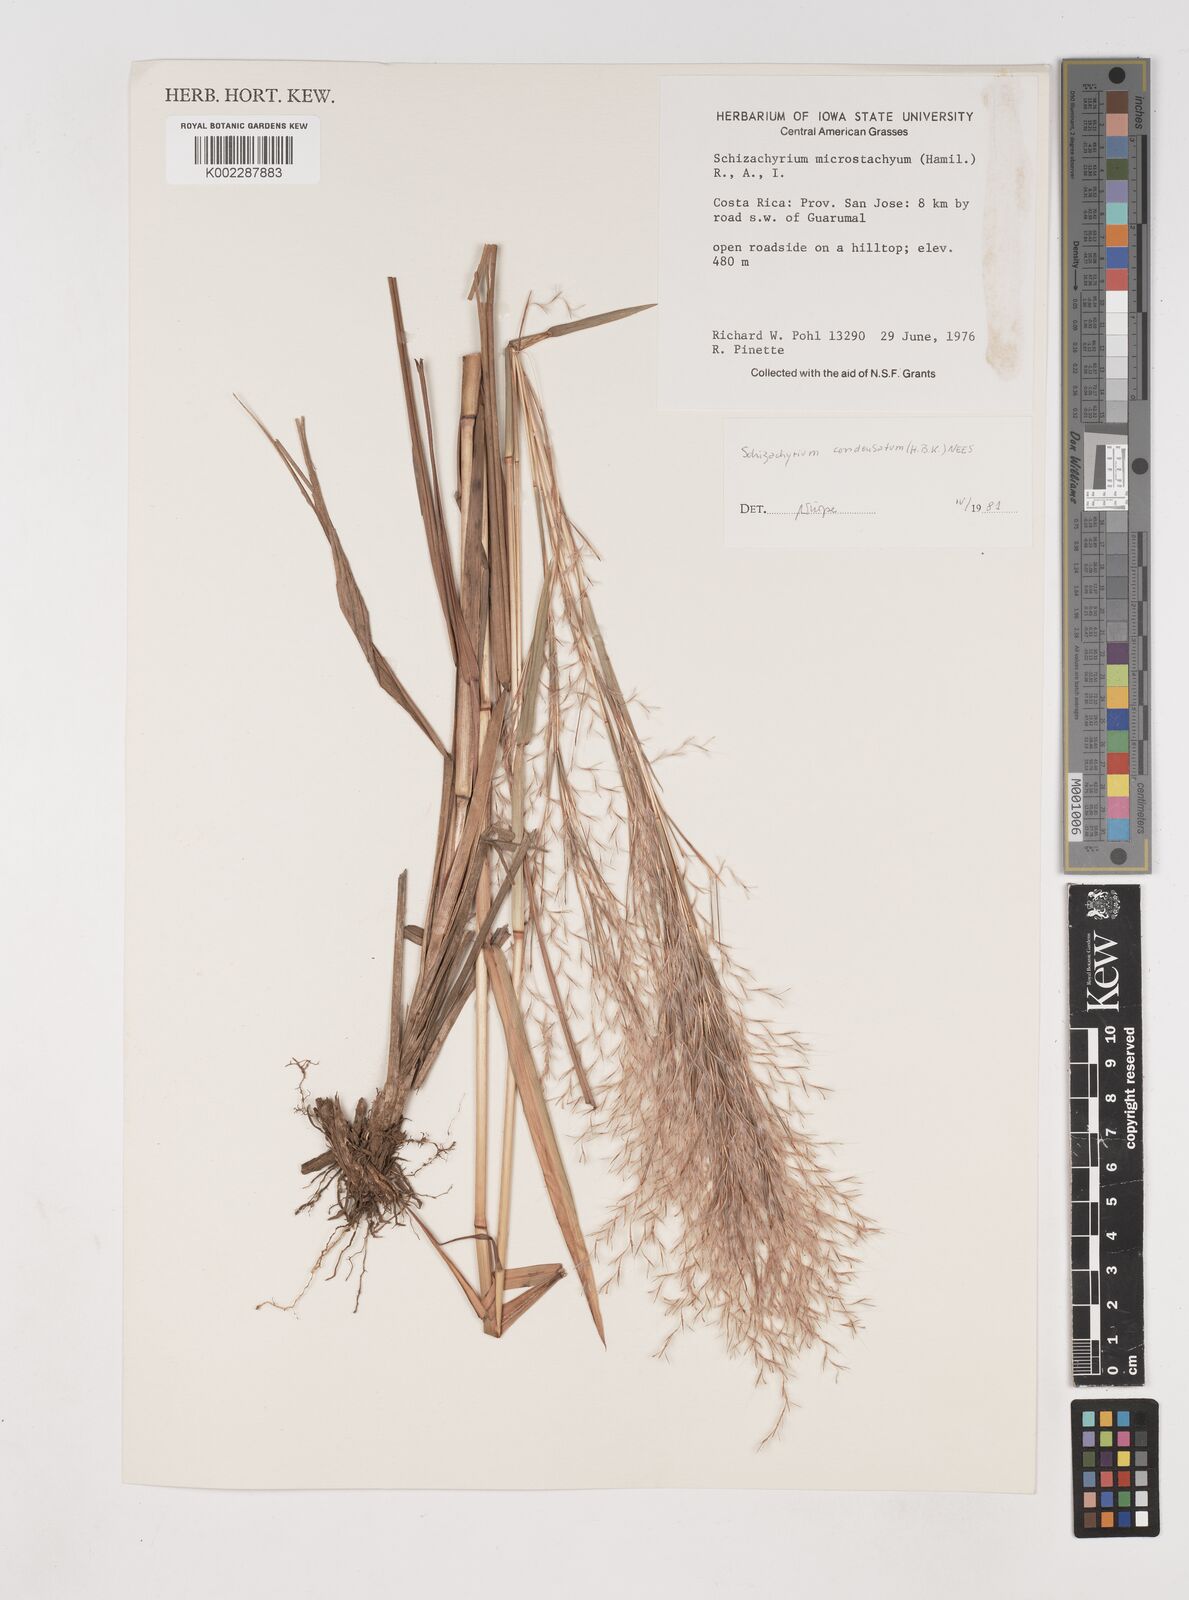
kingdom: Plantae
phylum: Tracheophyta
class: Liliopsida
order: Poales
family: Poaceae
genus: Schizachyrium
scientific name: Schizachyrium condensatum
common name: Bush beardgrass
